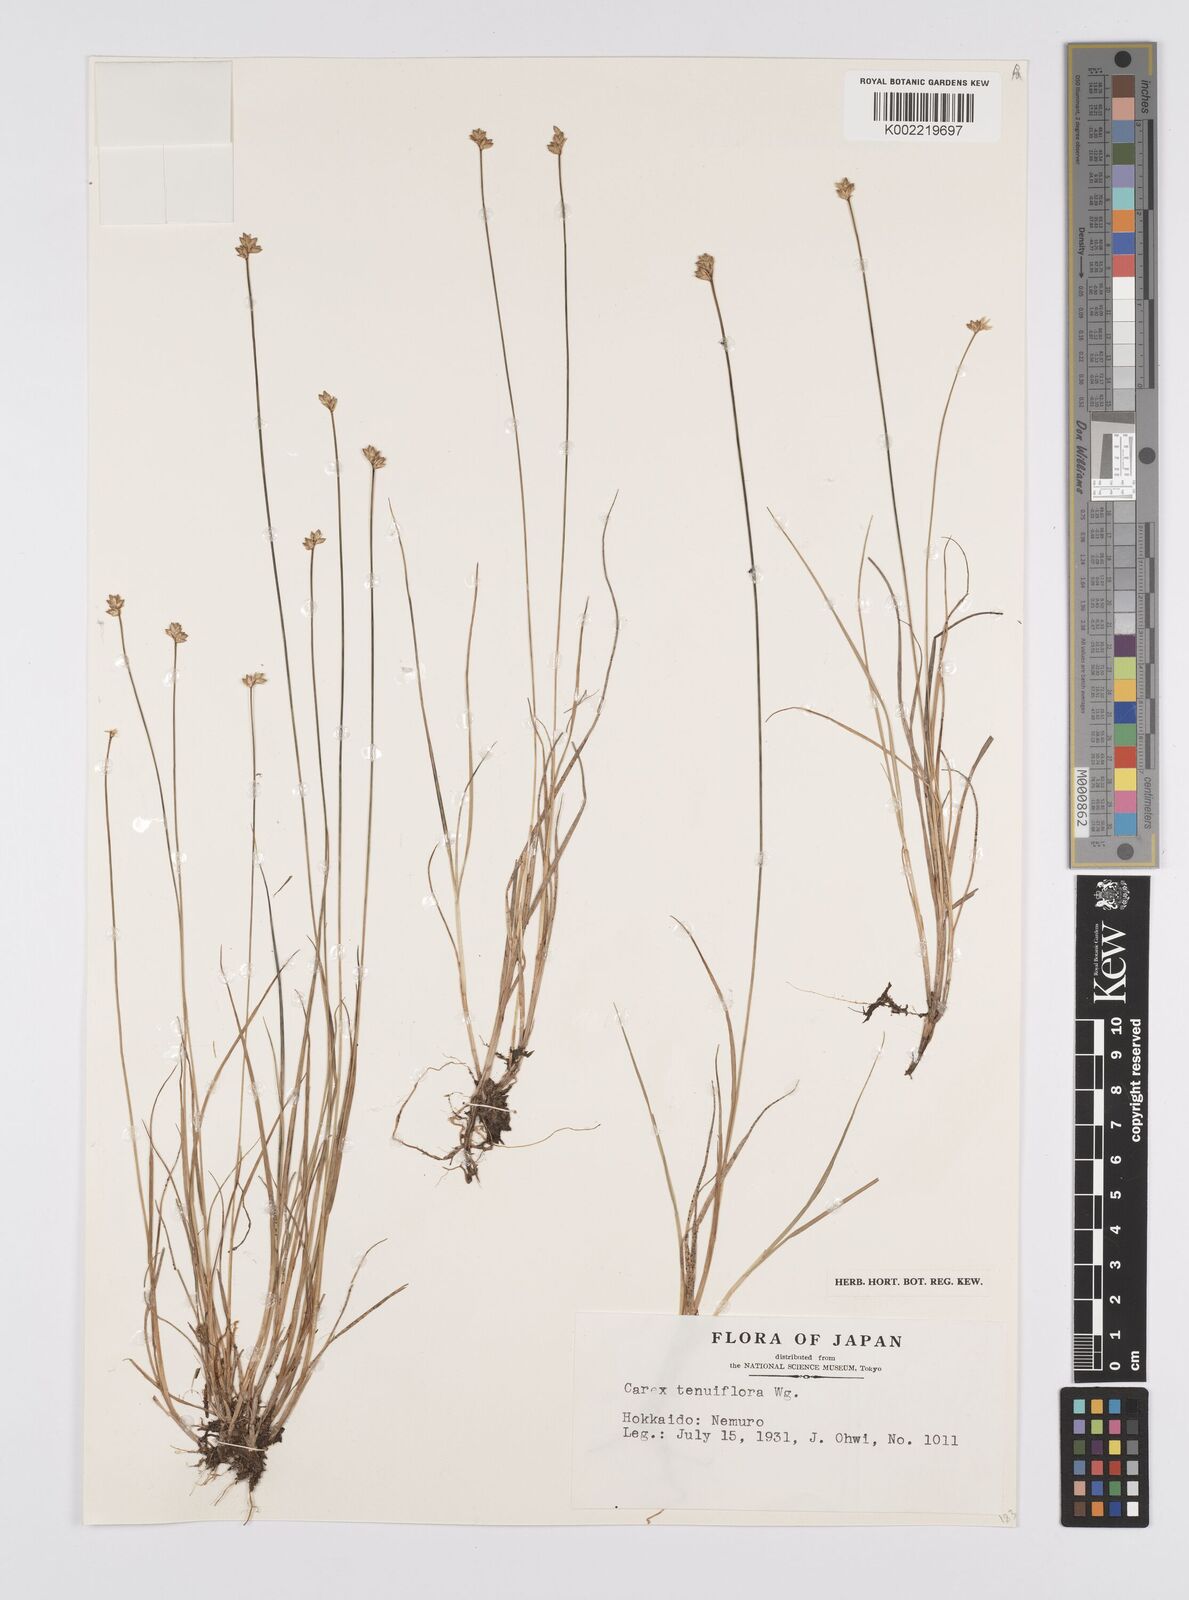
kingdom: Plantae
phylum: Tracheophyta
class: Liliopsida
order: Poales
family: Cyperaceae
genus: Carex
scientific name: Carex tenuiflora
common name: Sparse-flowered sedge
